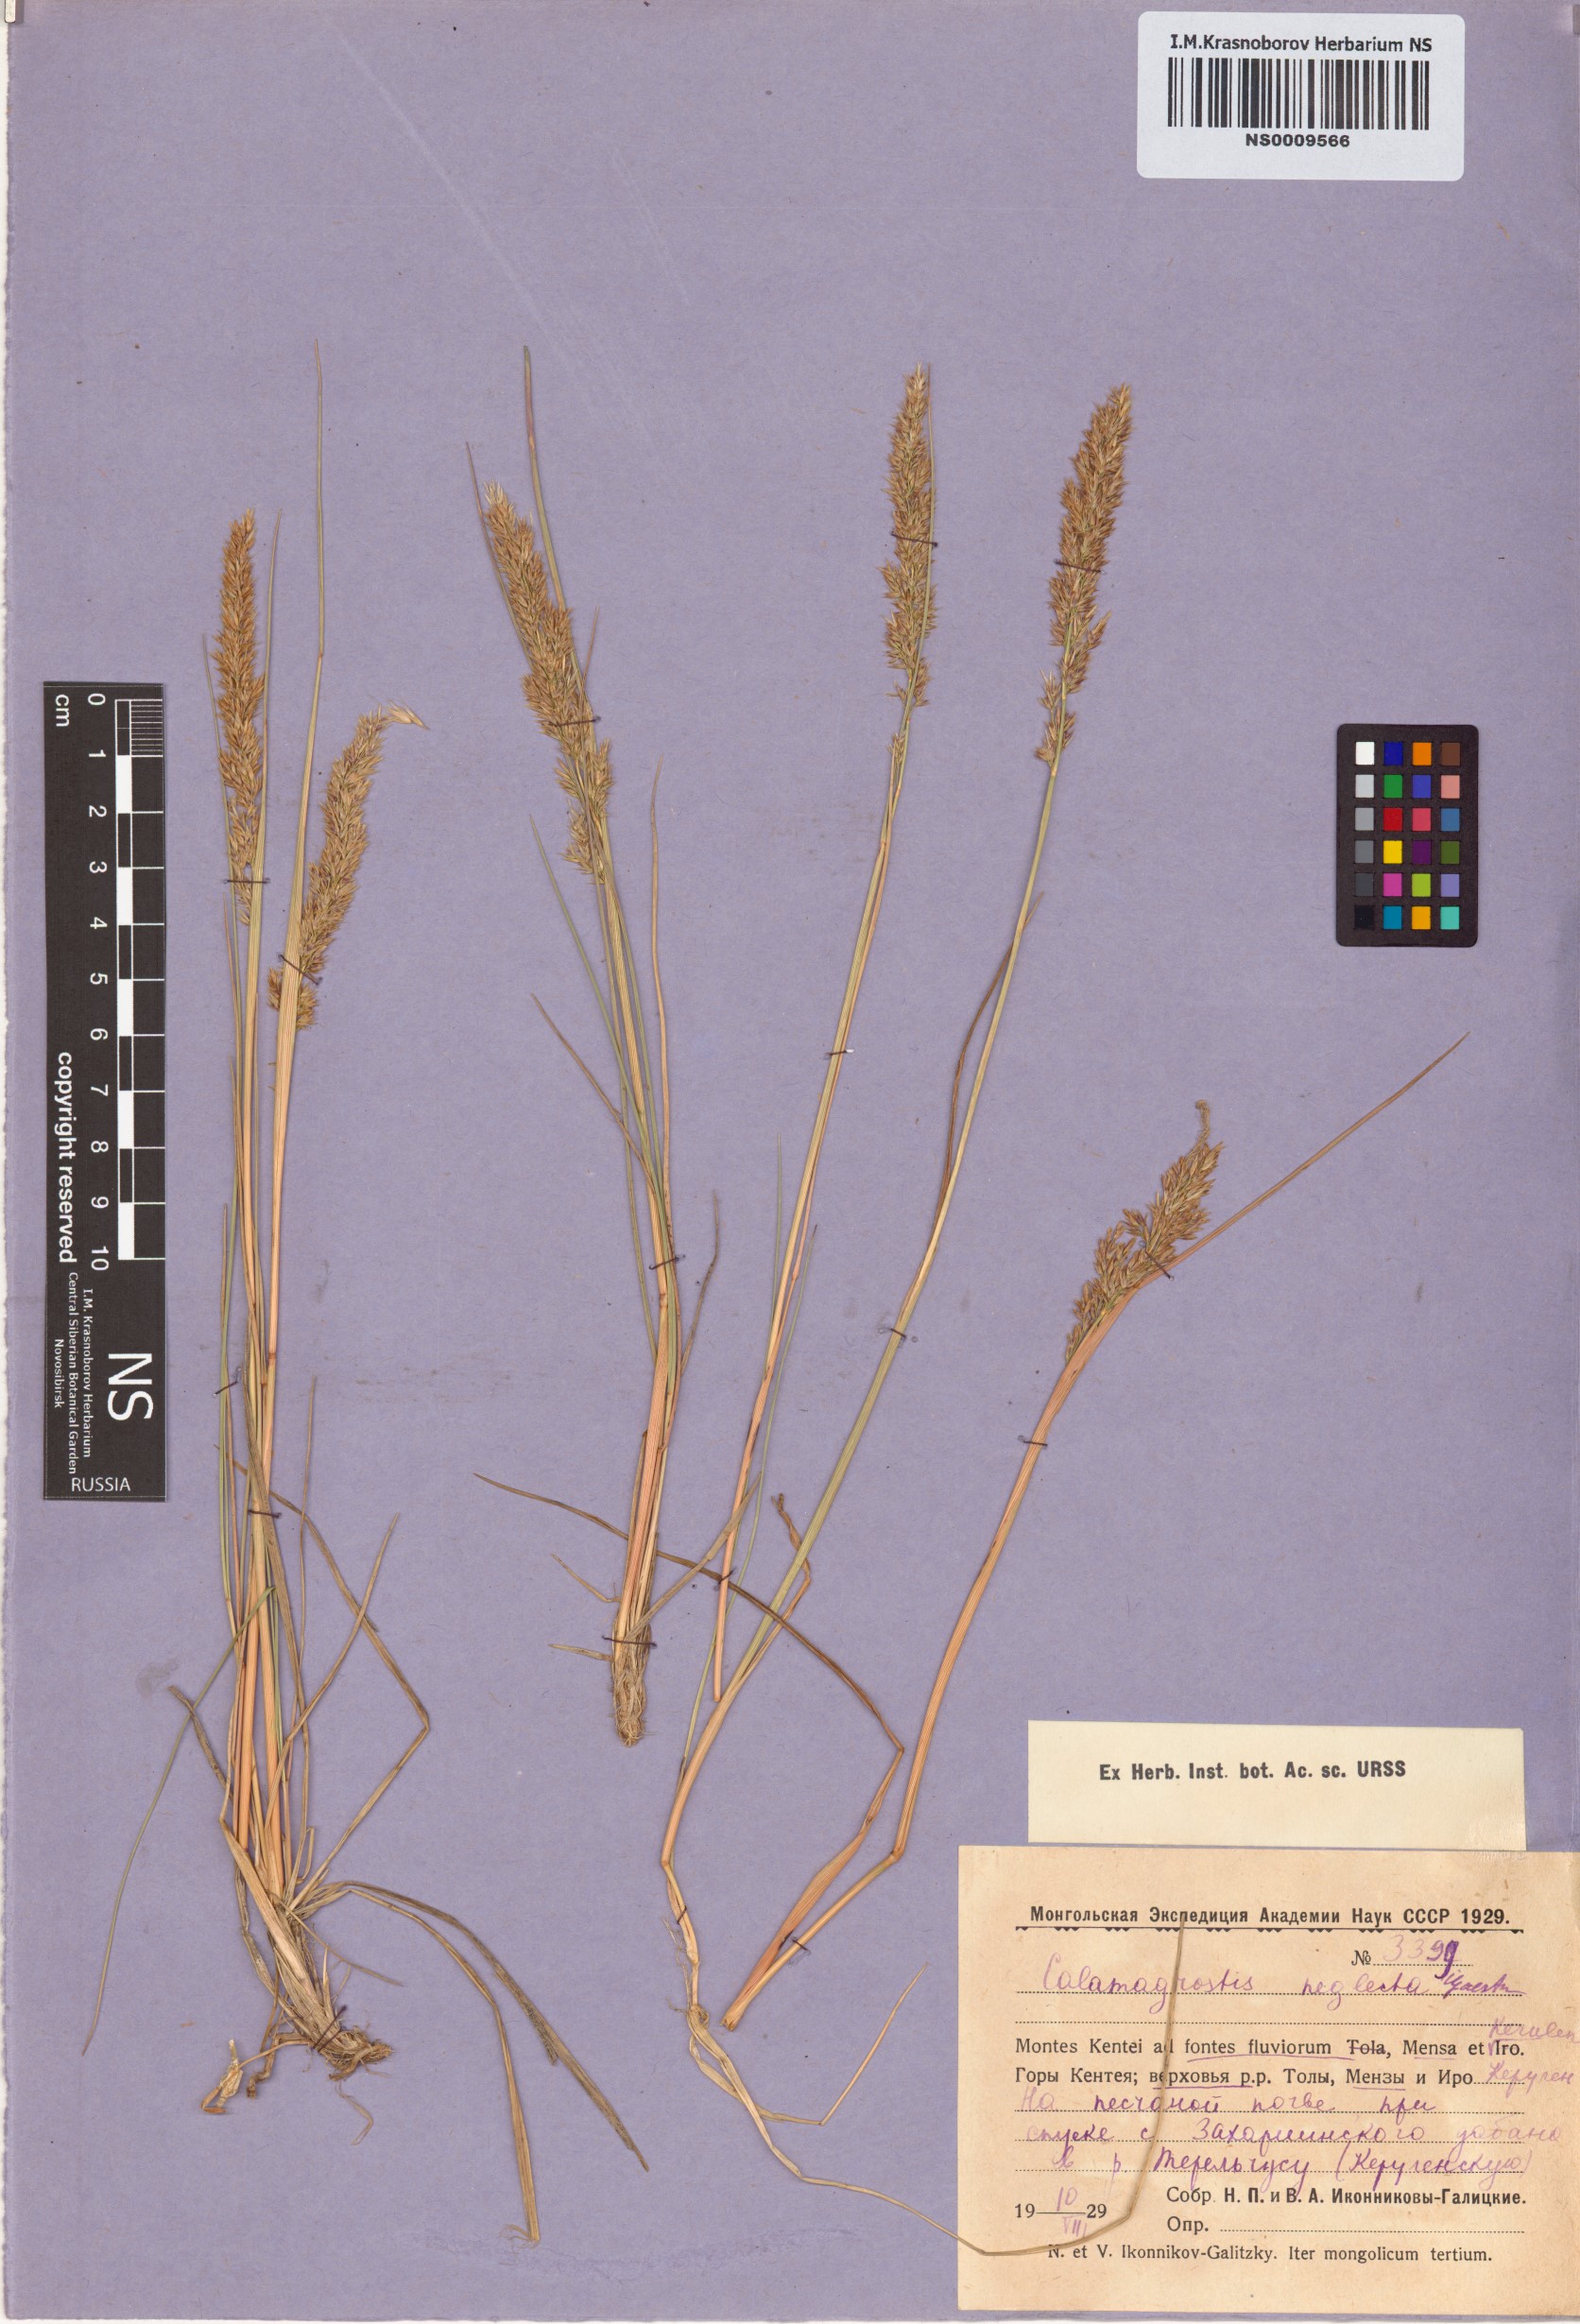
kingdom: Plantae
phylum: Tracheophyta
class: Liliopsida
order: Poales
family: Poaceae
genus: Achnatherum
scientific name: Achnatherum calamagrostis
